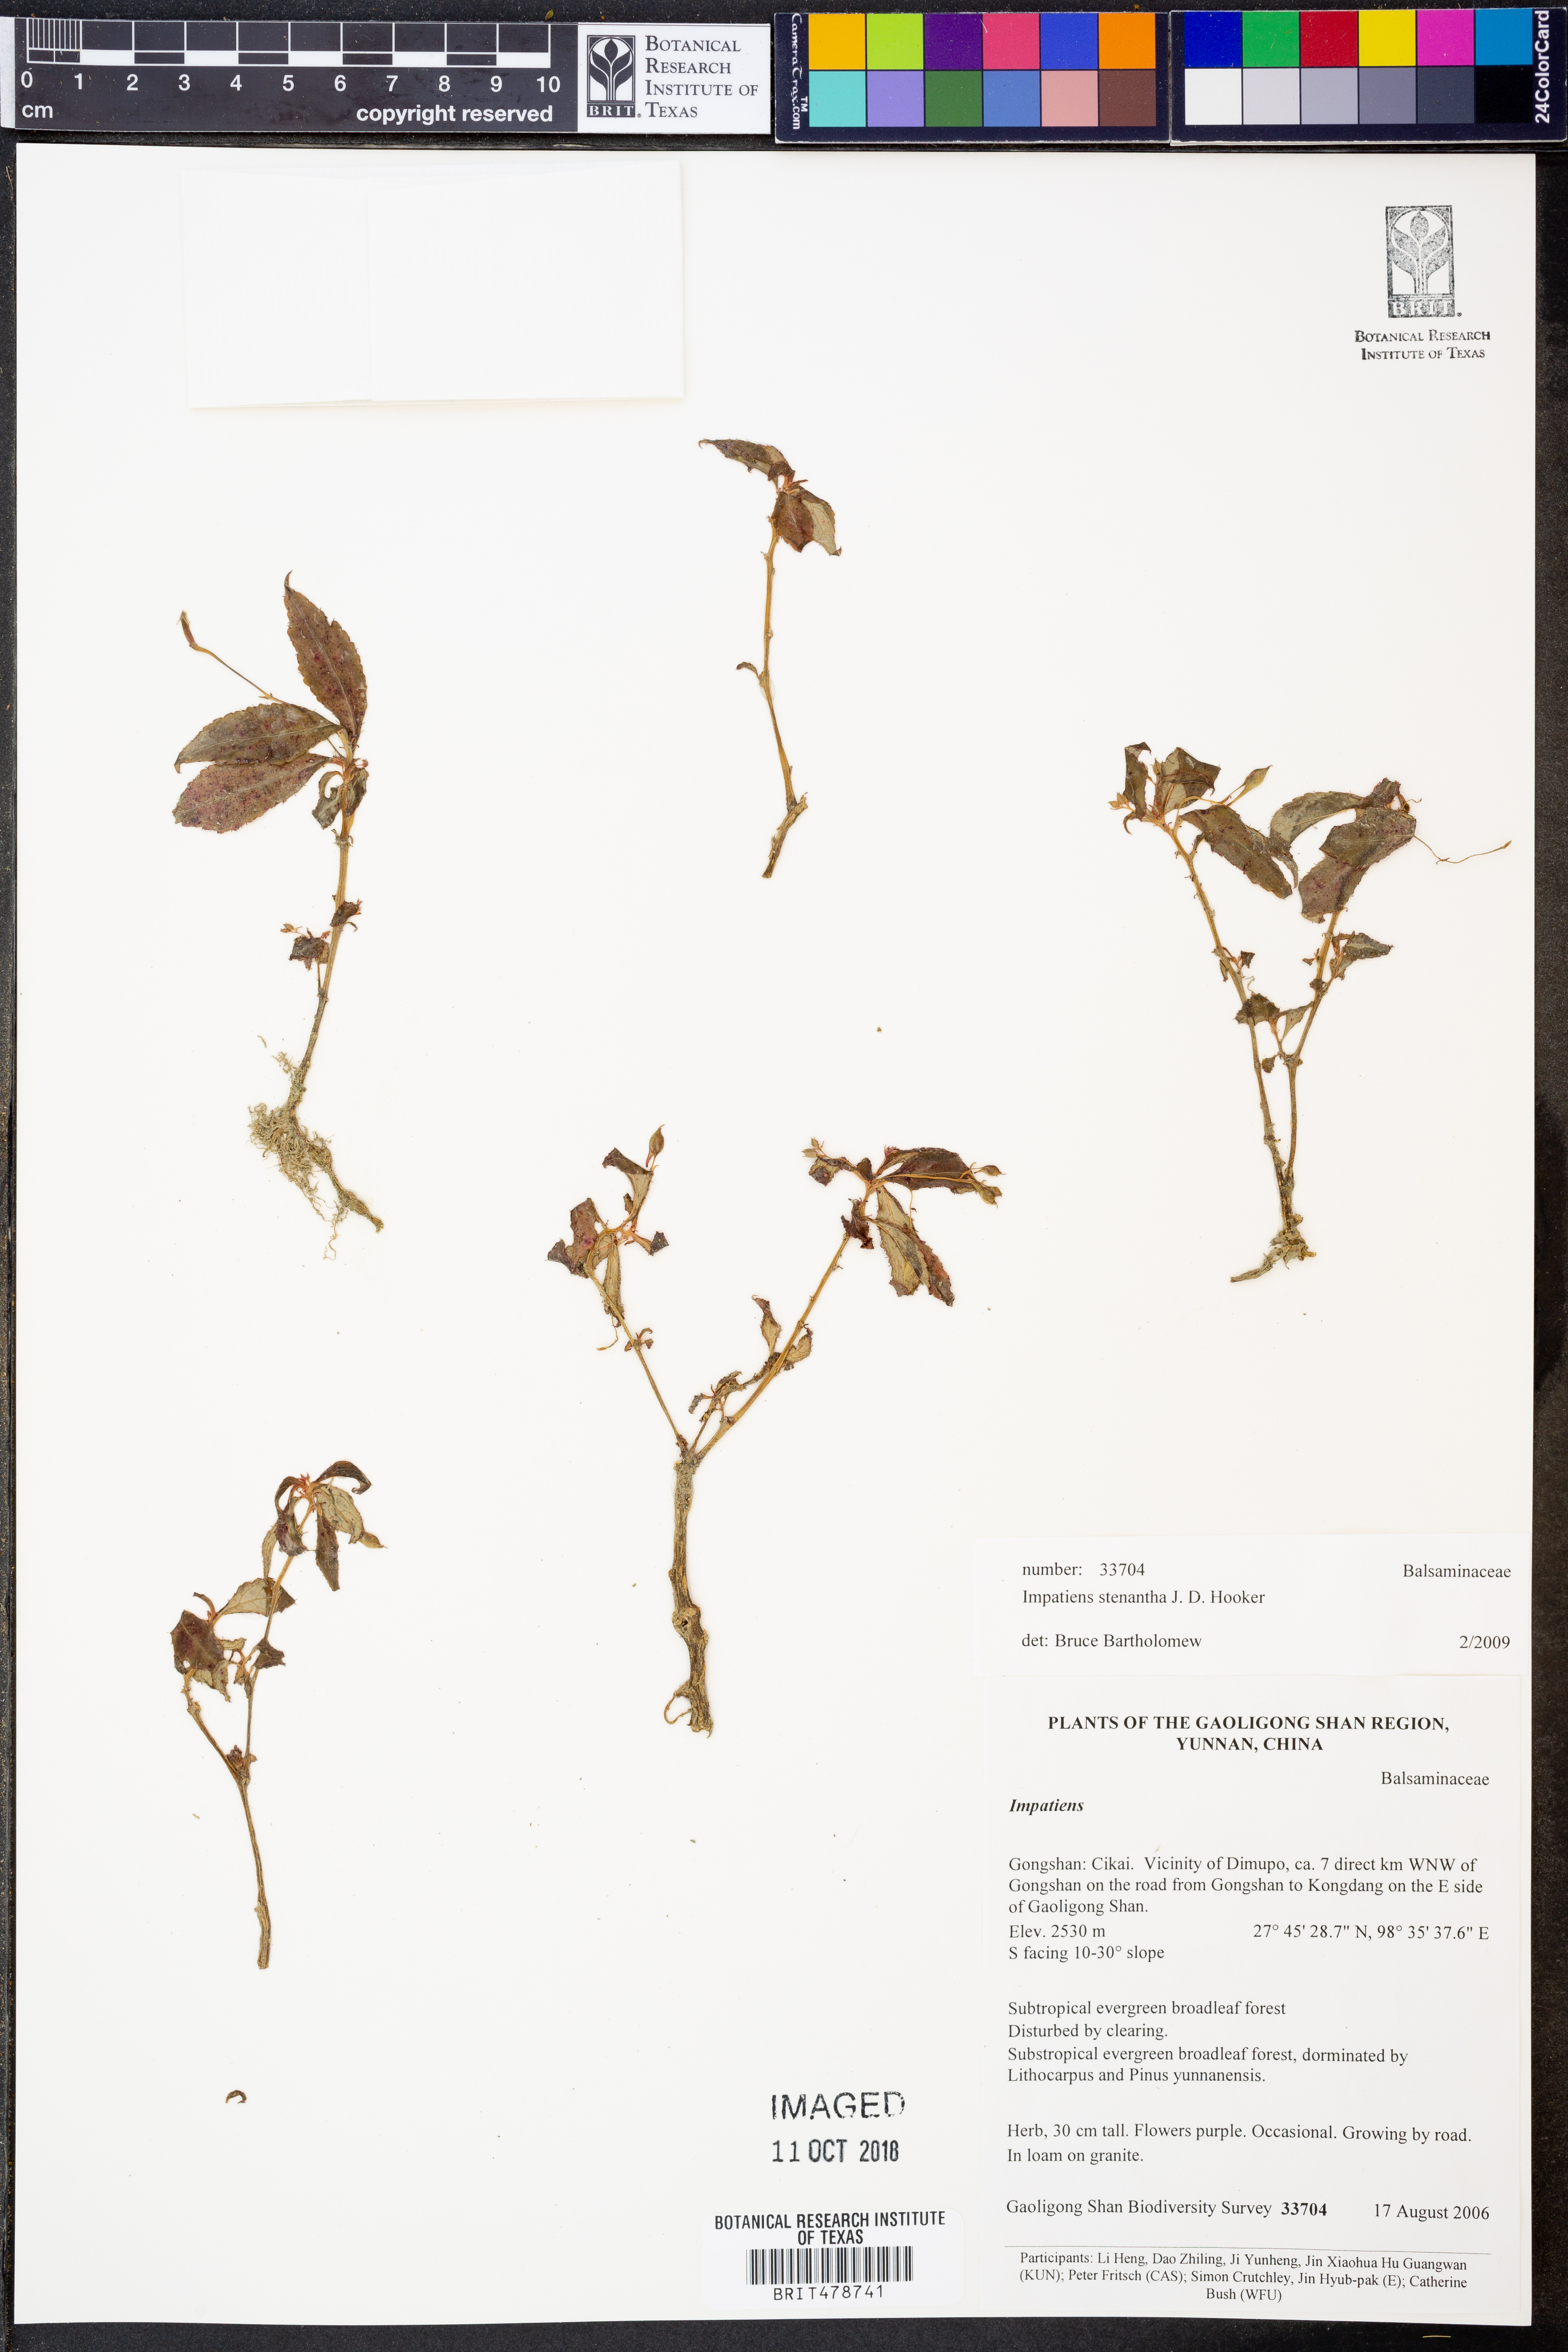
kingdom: Plantae
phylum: Tracheophyta
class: Magnoliopsida
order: Ericales
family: Balsaminaceae
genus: Impatiens
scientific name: Impatiens stenantha
